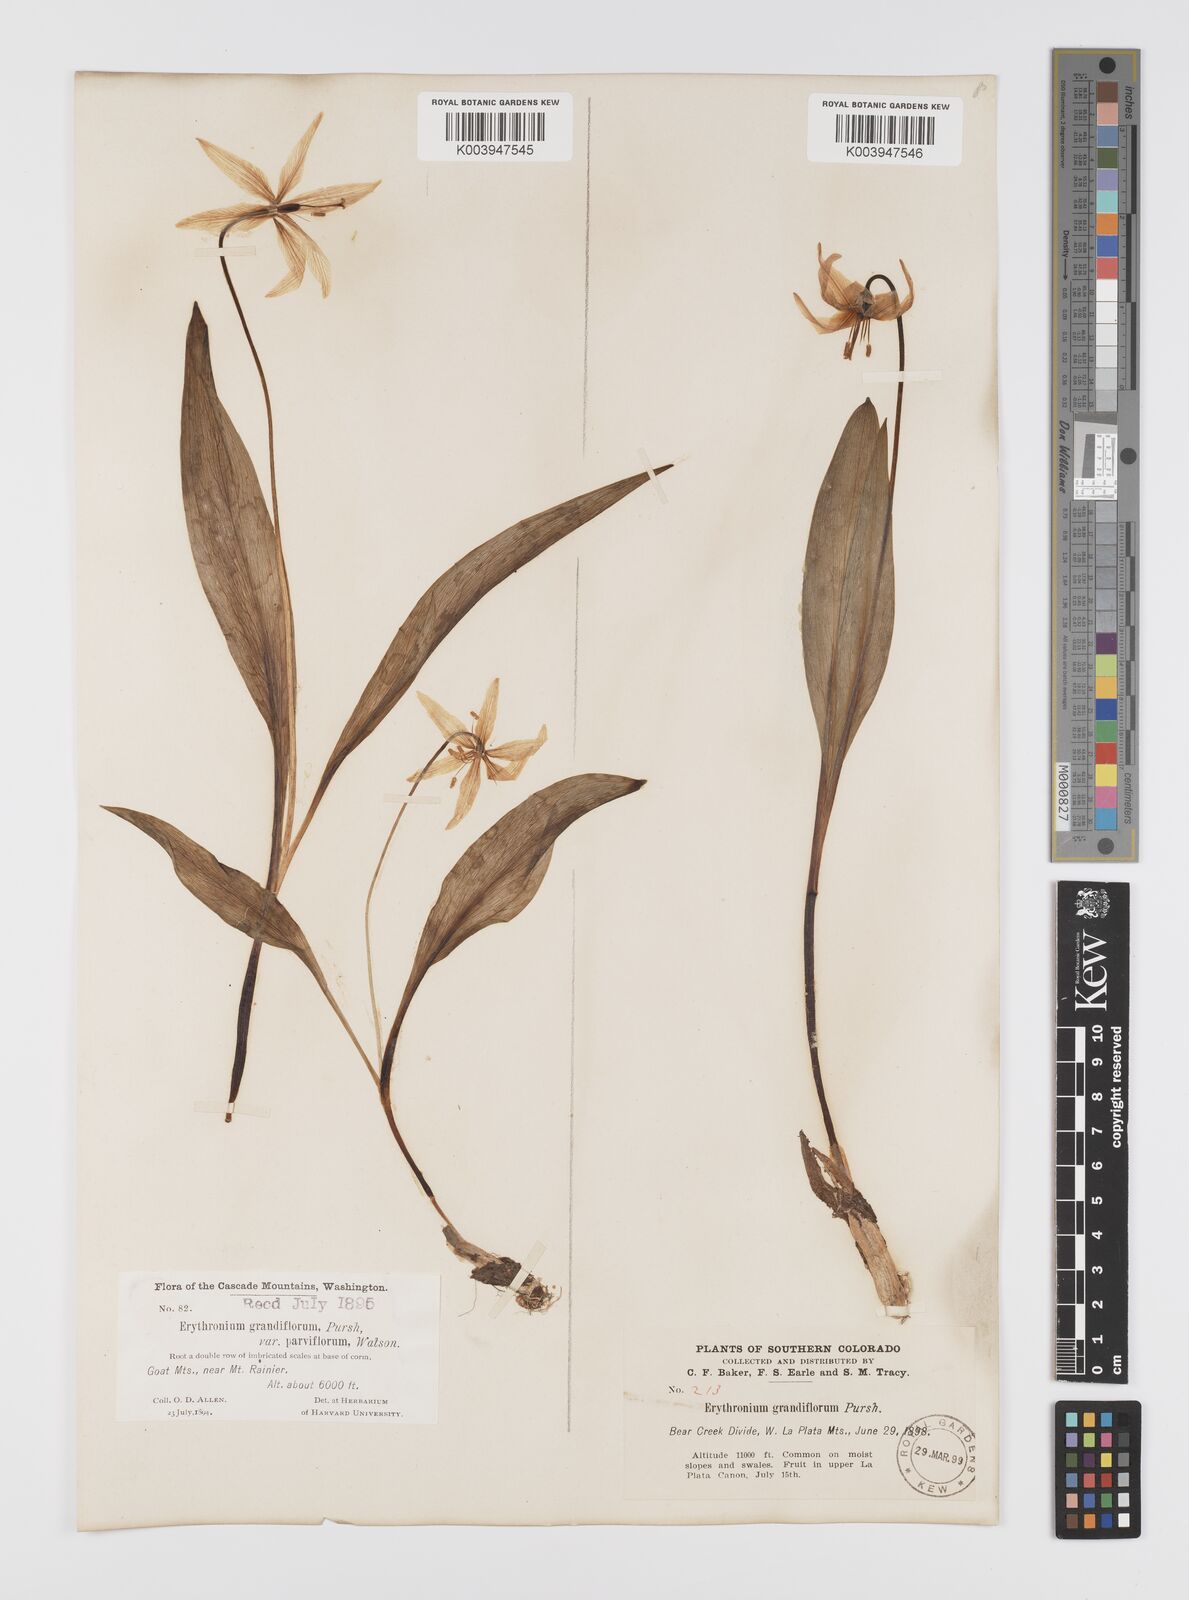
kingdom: Plantae
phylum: Tracheophyta
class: Liliopsida
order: Liliales
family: Liliaceae
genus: Erythronium
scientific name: Erythronium grandiflorum
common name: Avalanche-lily
